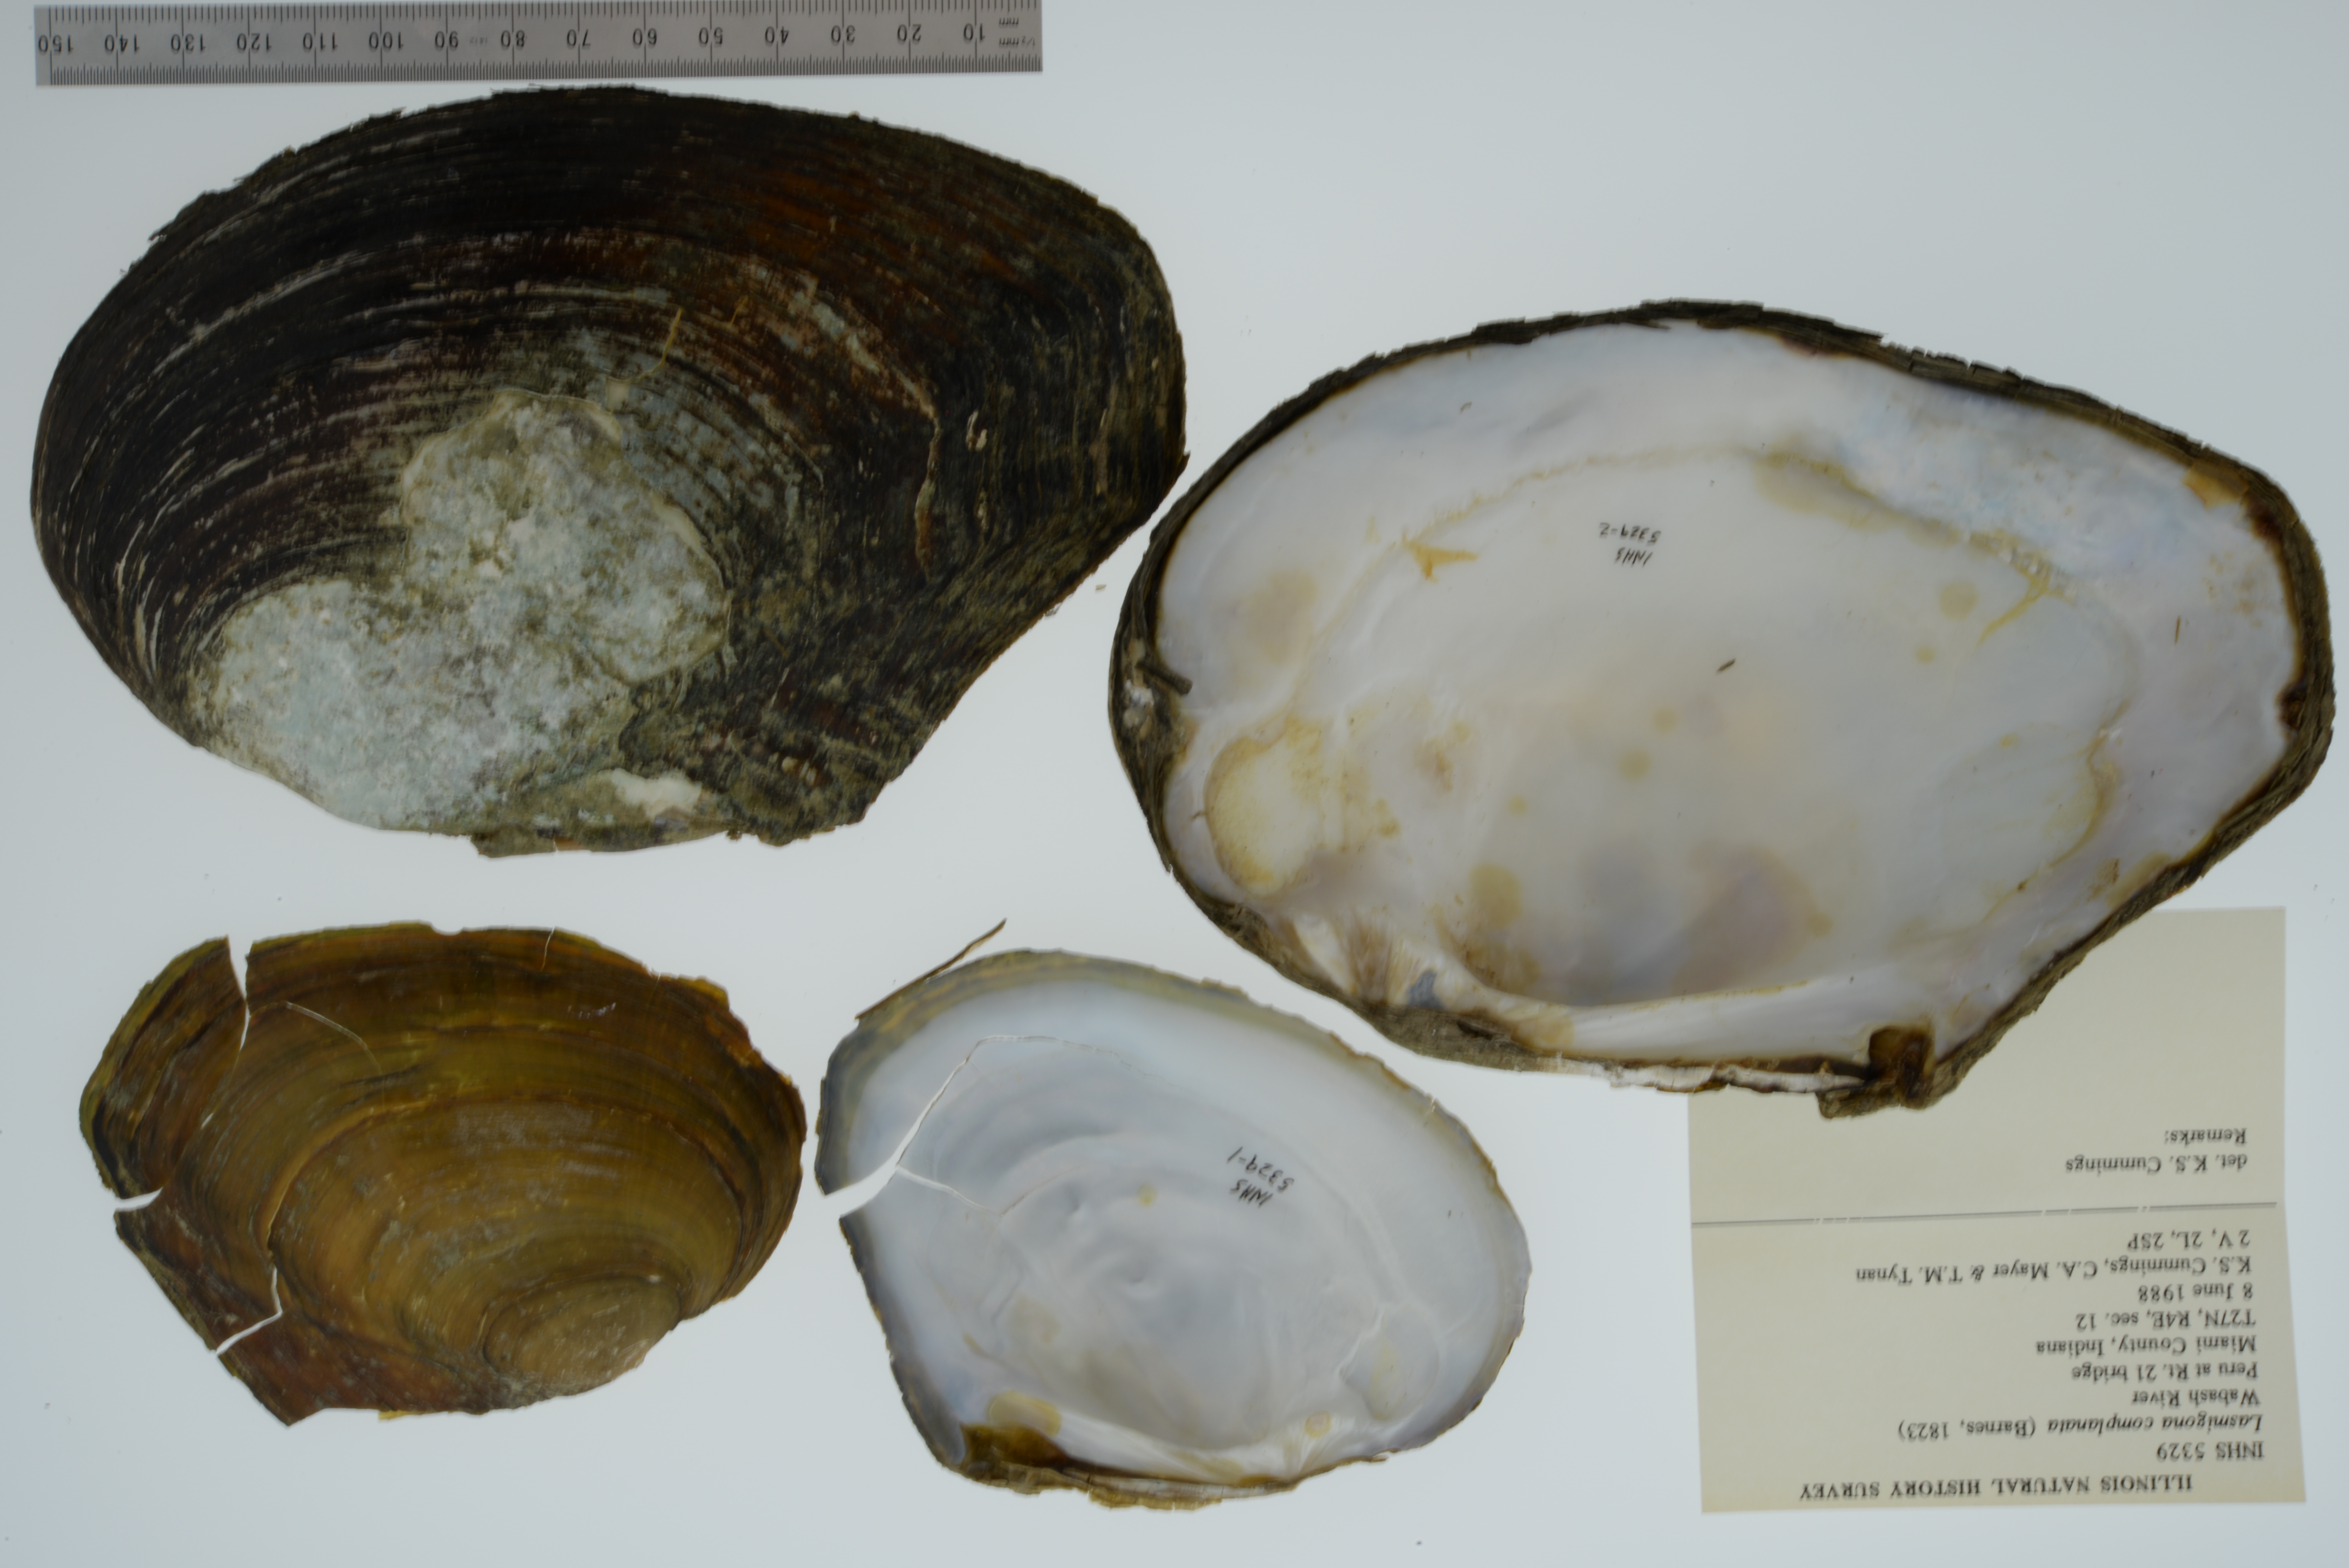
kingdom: Animalia
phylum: Mollusca
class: Bivalvia
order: Unionida
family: Unionidae
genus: Lasmigona
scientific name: Lasmigona complanata
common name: White heelsplitter
